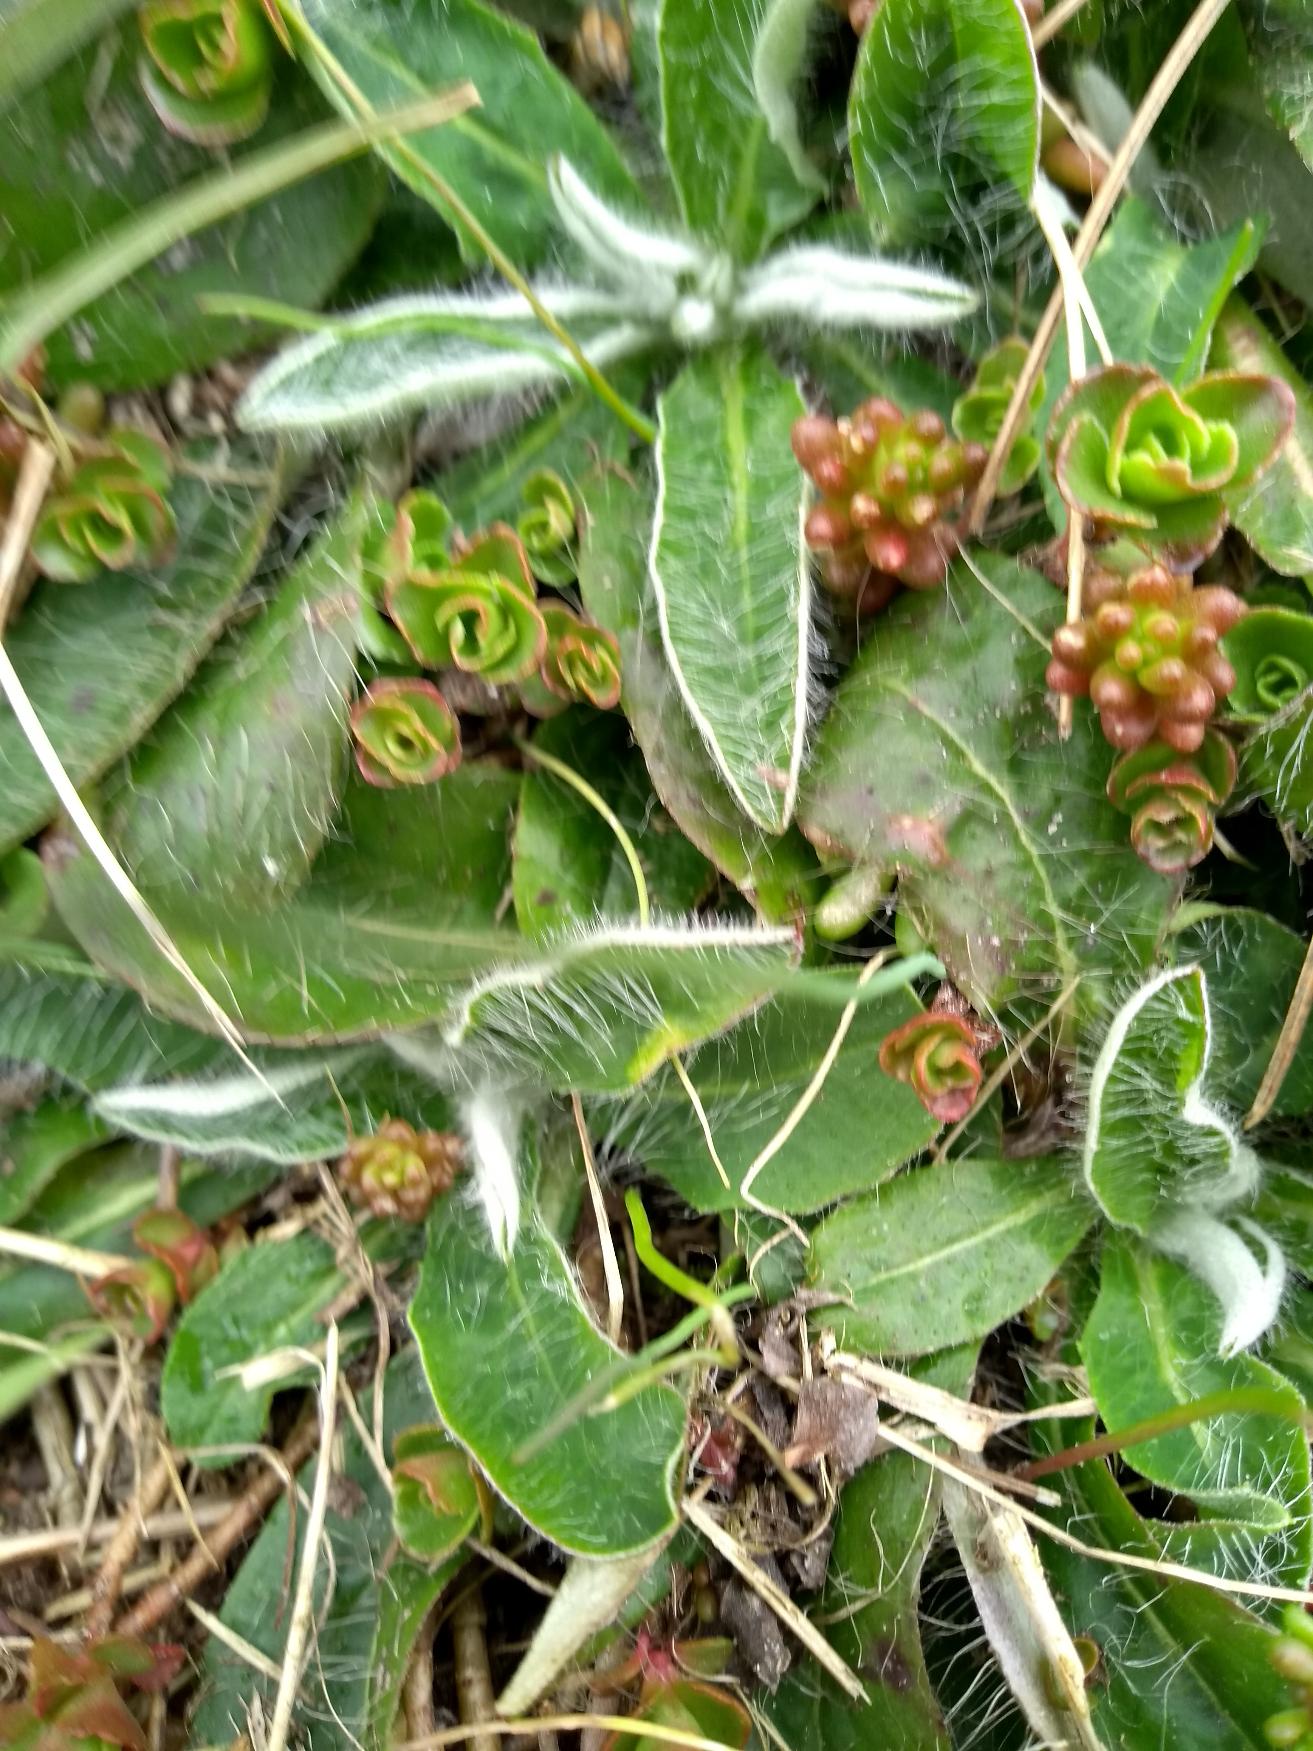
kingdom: Plantae
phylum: Tracheophyta
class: Magnoliopsida
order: Asterales
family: Asteraceae
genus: Pilosella
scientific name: Pilosella officinarum
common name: Håret høgeurt
